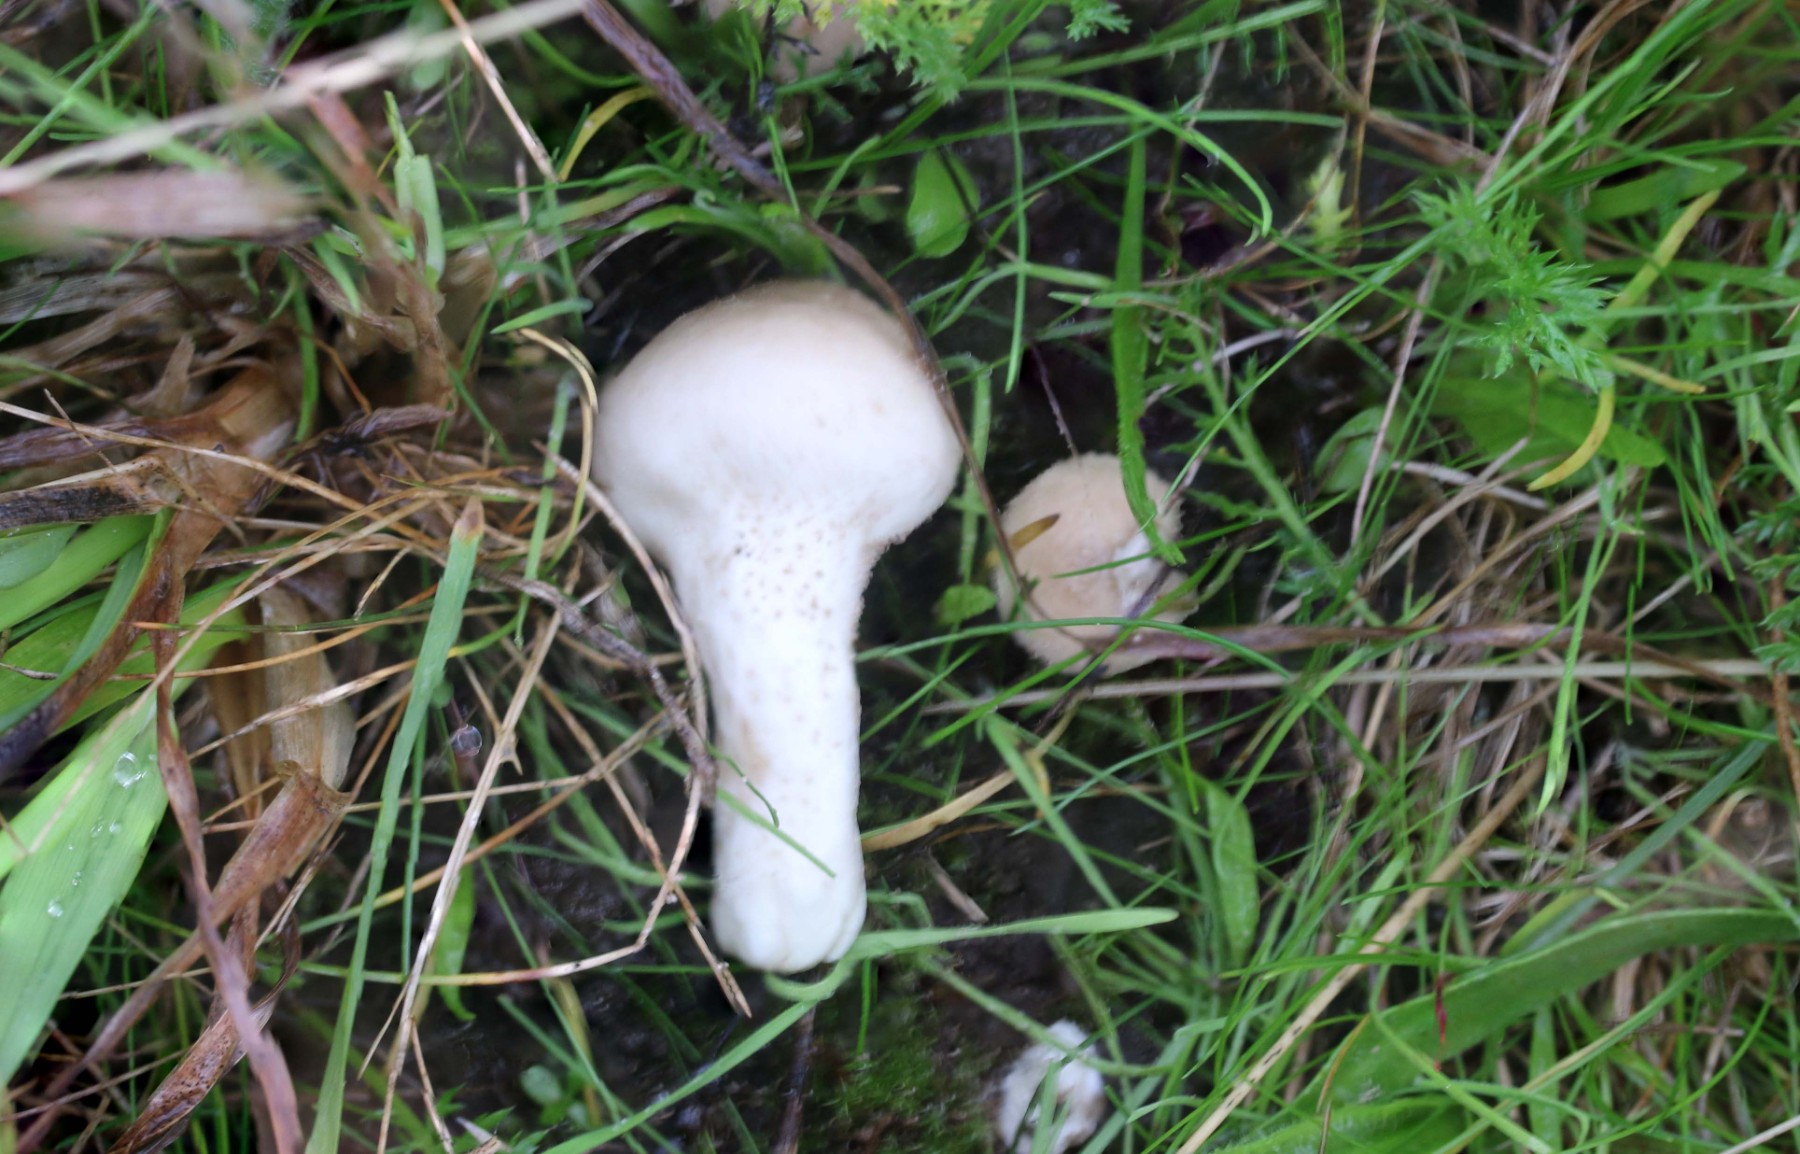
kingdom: Fungi
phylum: Basidiomycota
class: Agaricomycetes
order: Agaricales
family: Lycoperdaceae
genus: Lycoperdon
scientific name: Lycoperdon excipuliforme
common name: højstokket støvbold
